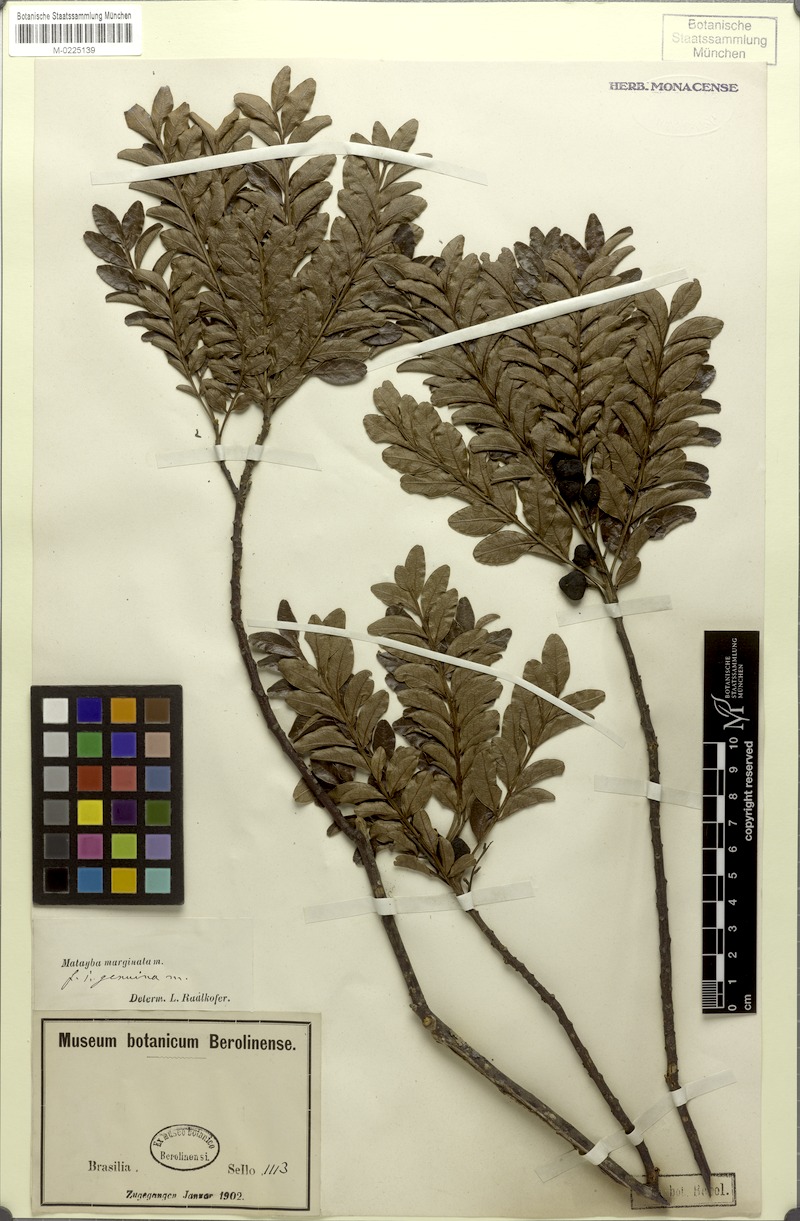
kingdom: Plantae
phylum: Tracheophyta
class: Magnoliopsida
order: Sapindales
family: Sapindaceae
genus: Matayba
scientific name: Matayba marginata
